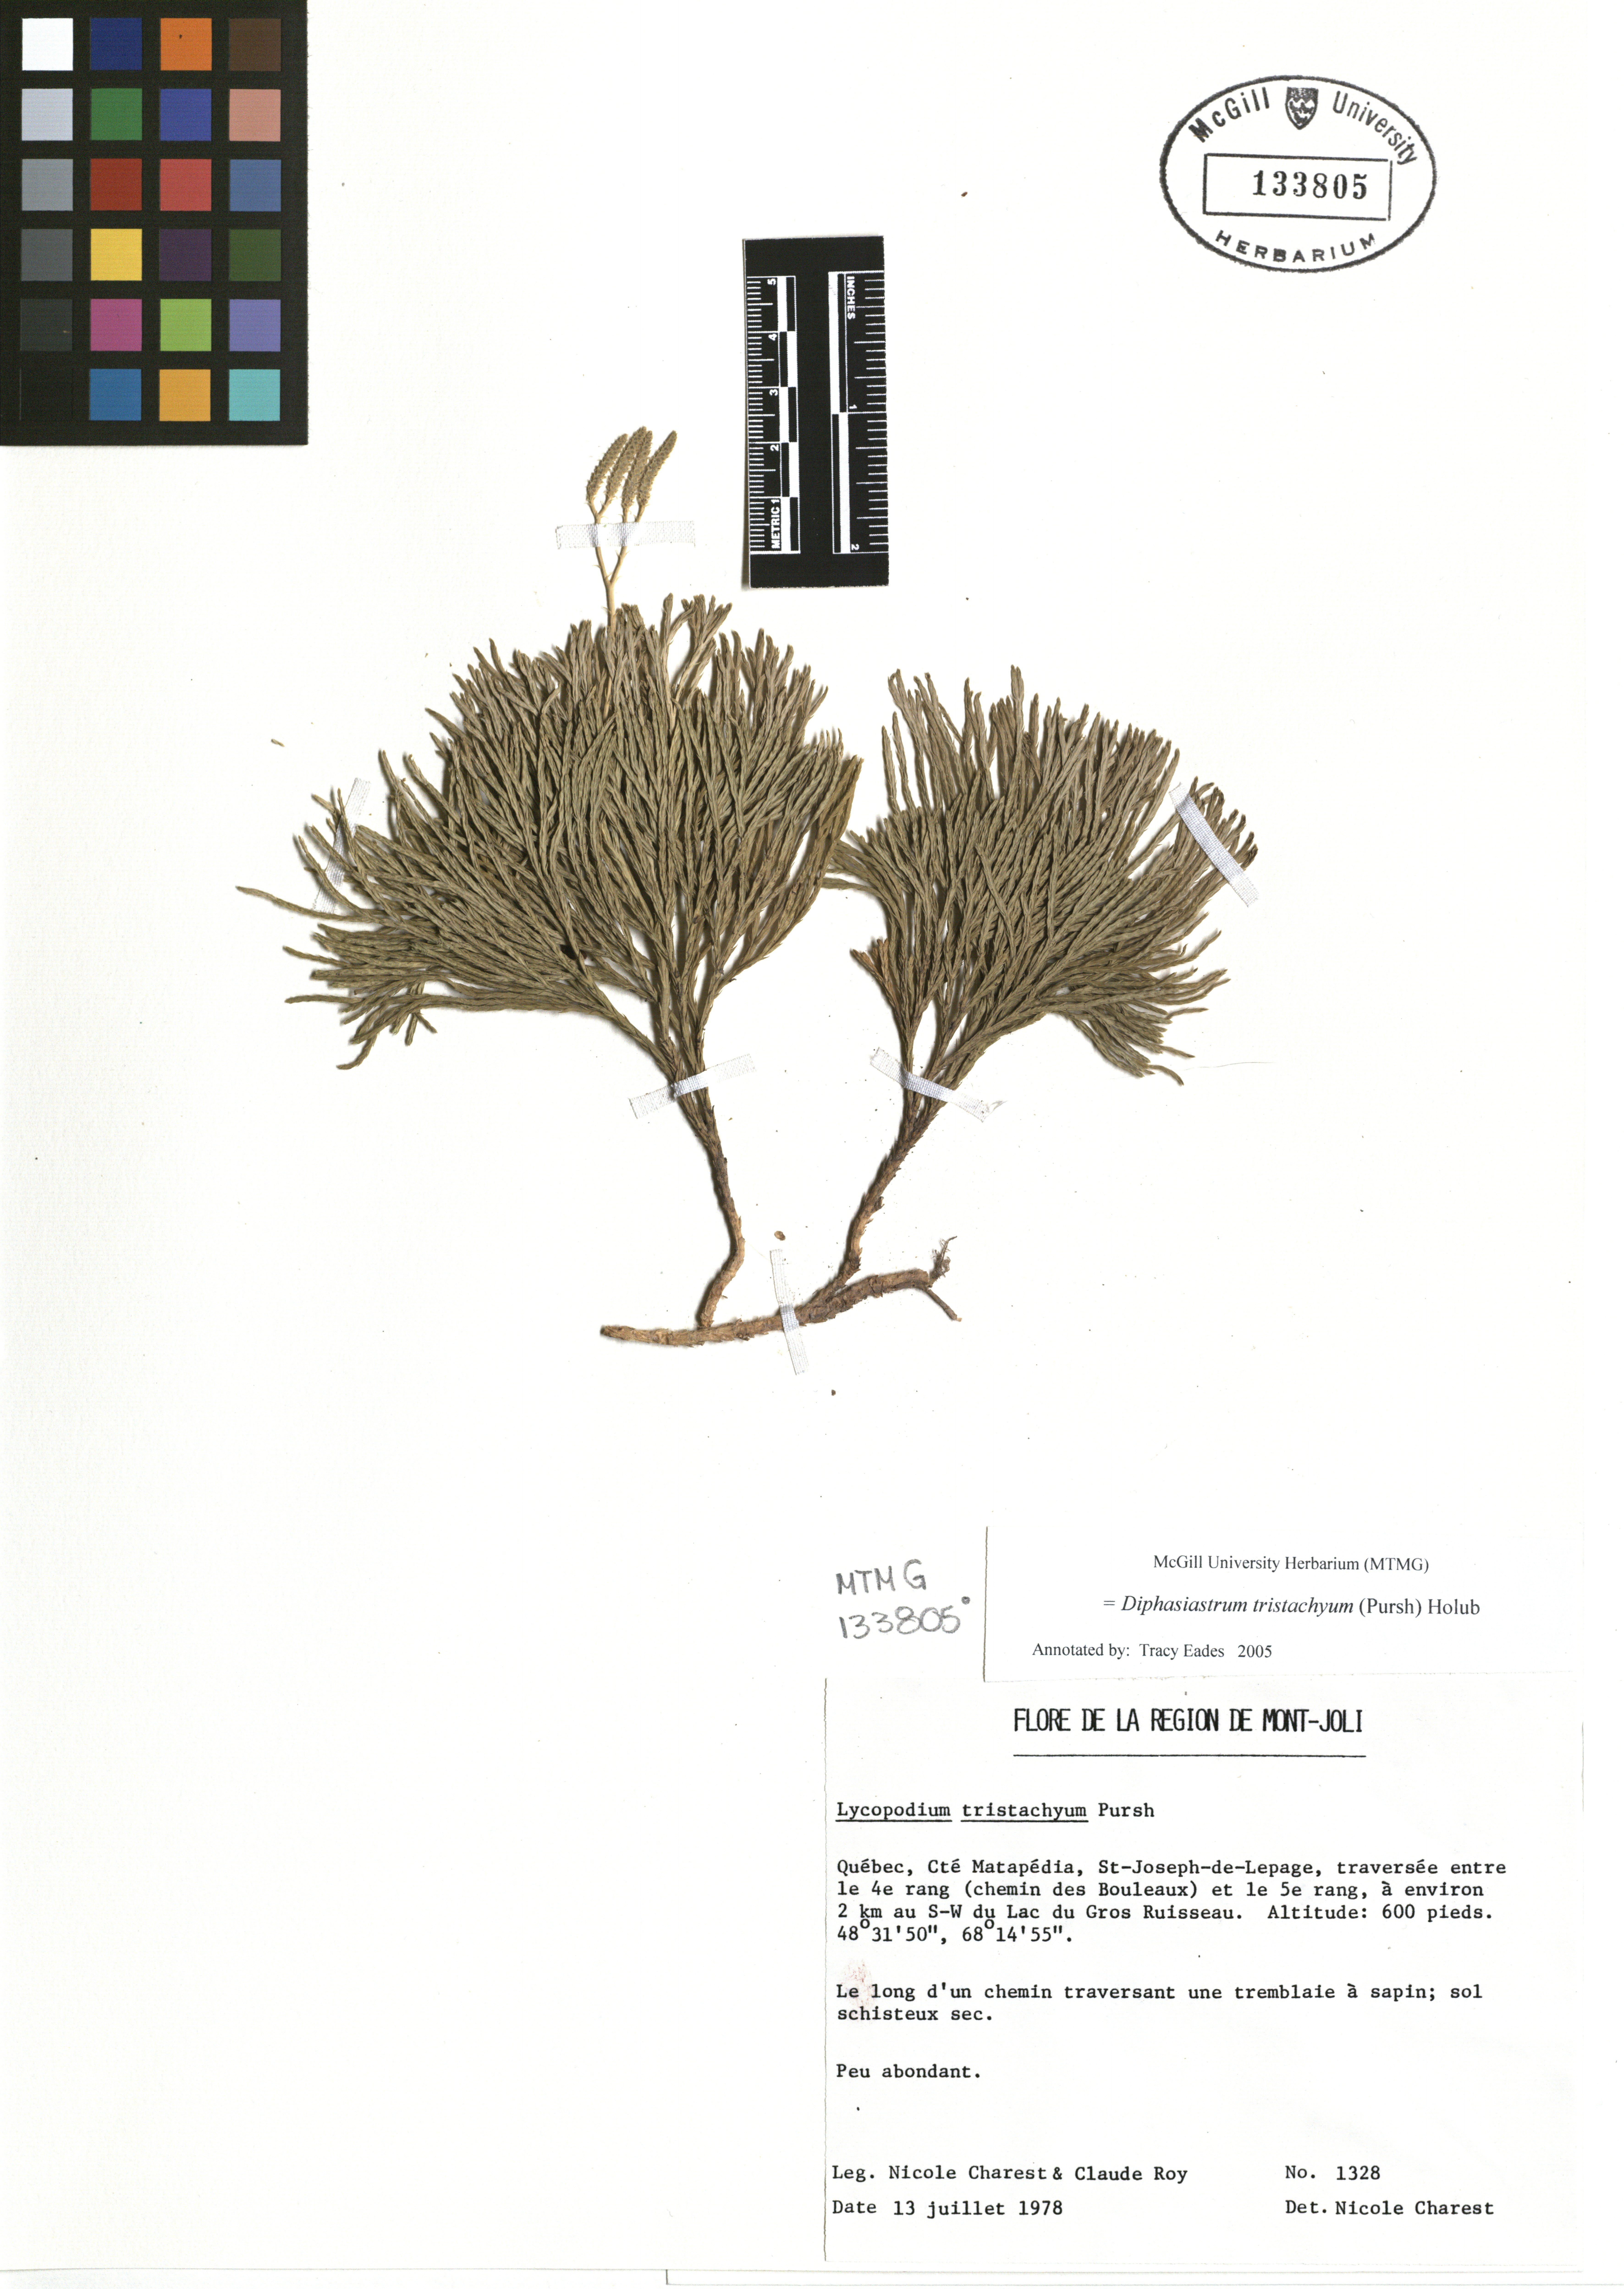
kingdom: Plantae
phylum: Tracheophyta
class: Lycopodiopsida
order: Lycopodiales
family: Lycopodiaceae
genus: Diphasiastrum
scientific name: Diphasiastrum tristachyum
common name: Blue ground-cedar
